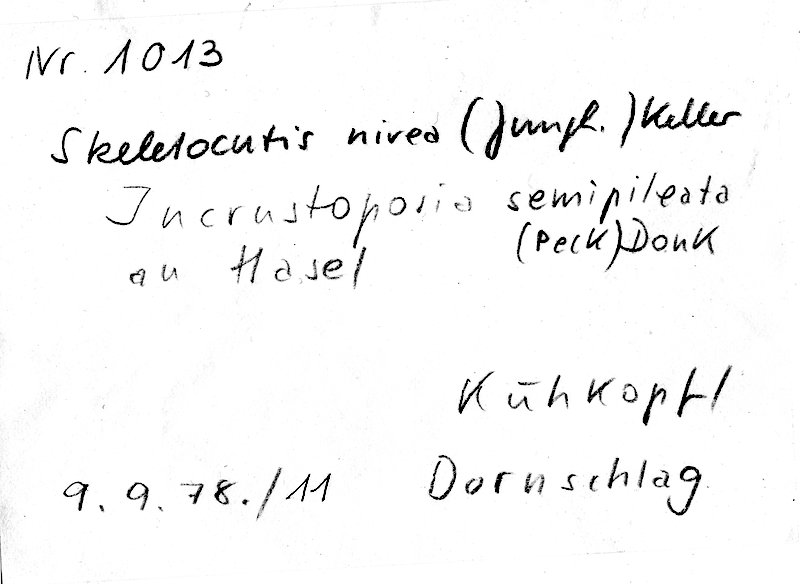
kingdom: Fungi
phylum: Basidiomycota
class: Agaricomycetes
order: Polyporales
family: Incrustoporiaceae
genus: Skeletocutis
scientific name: Skeletocutis nivea
